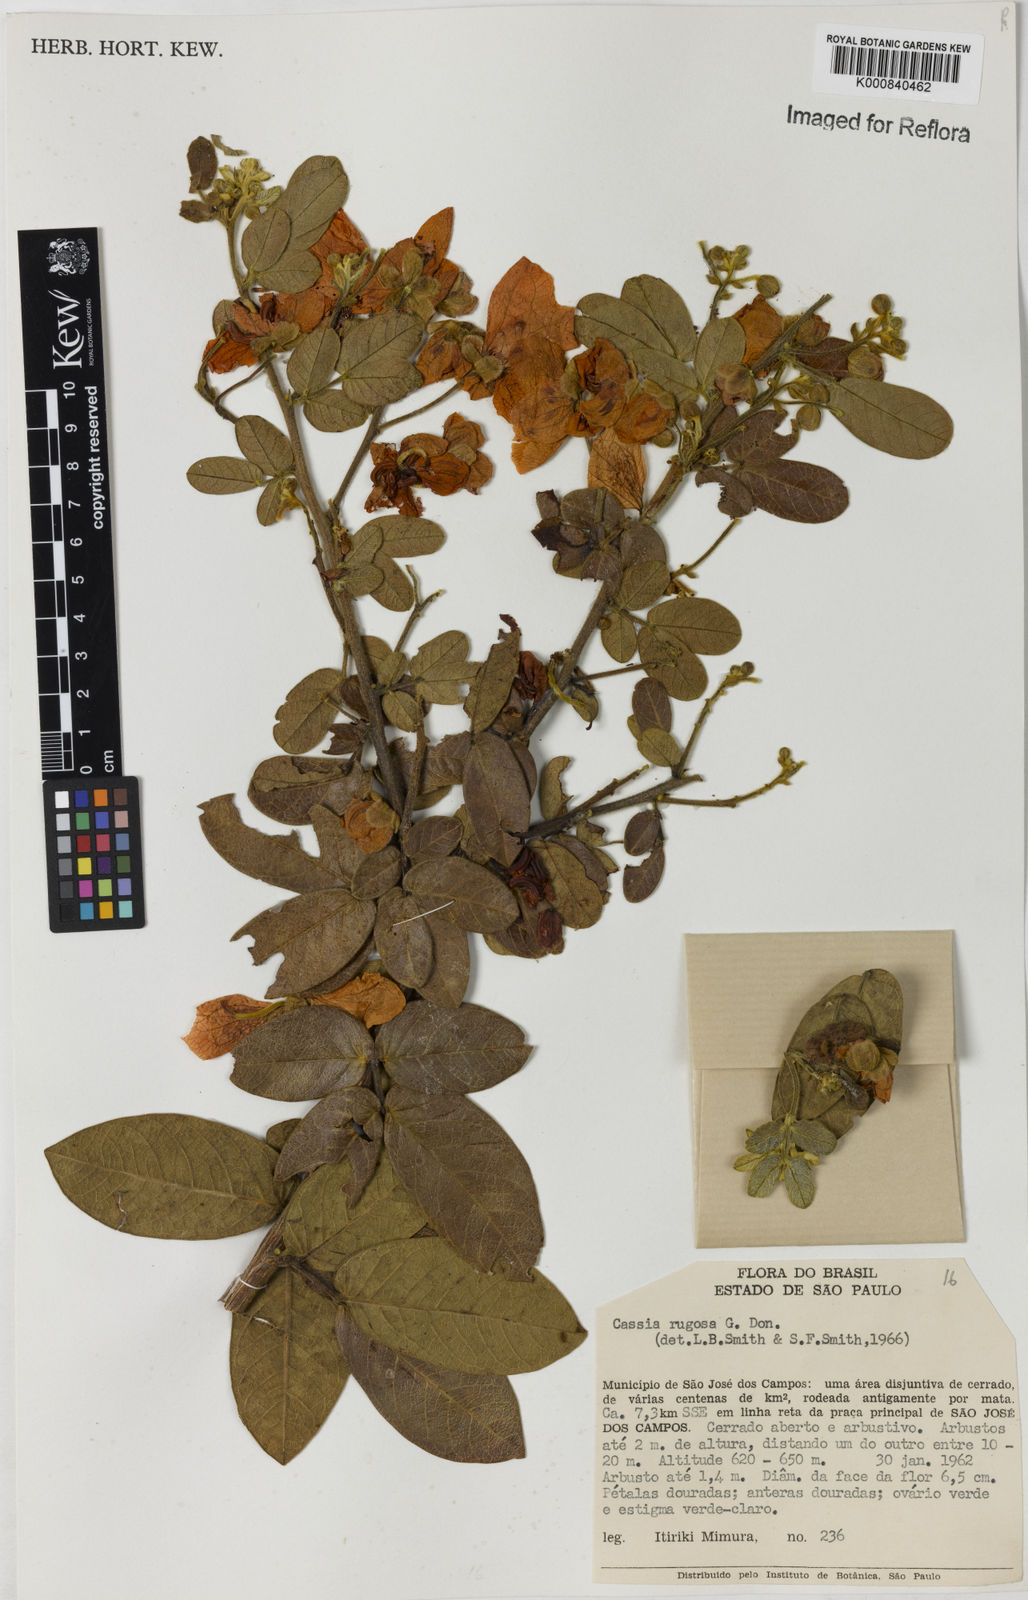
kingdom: Plantae
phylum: Tracheophyta
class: Magnoliopsida
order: Fabales
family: Fabaceae
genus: Senna
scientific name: Senna rugosa
